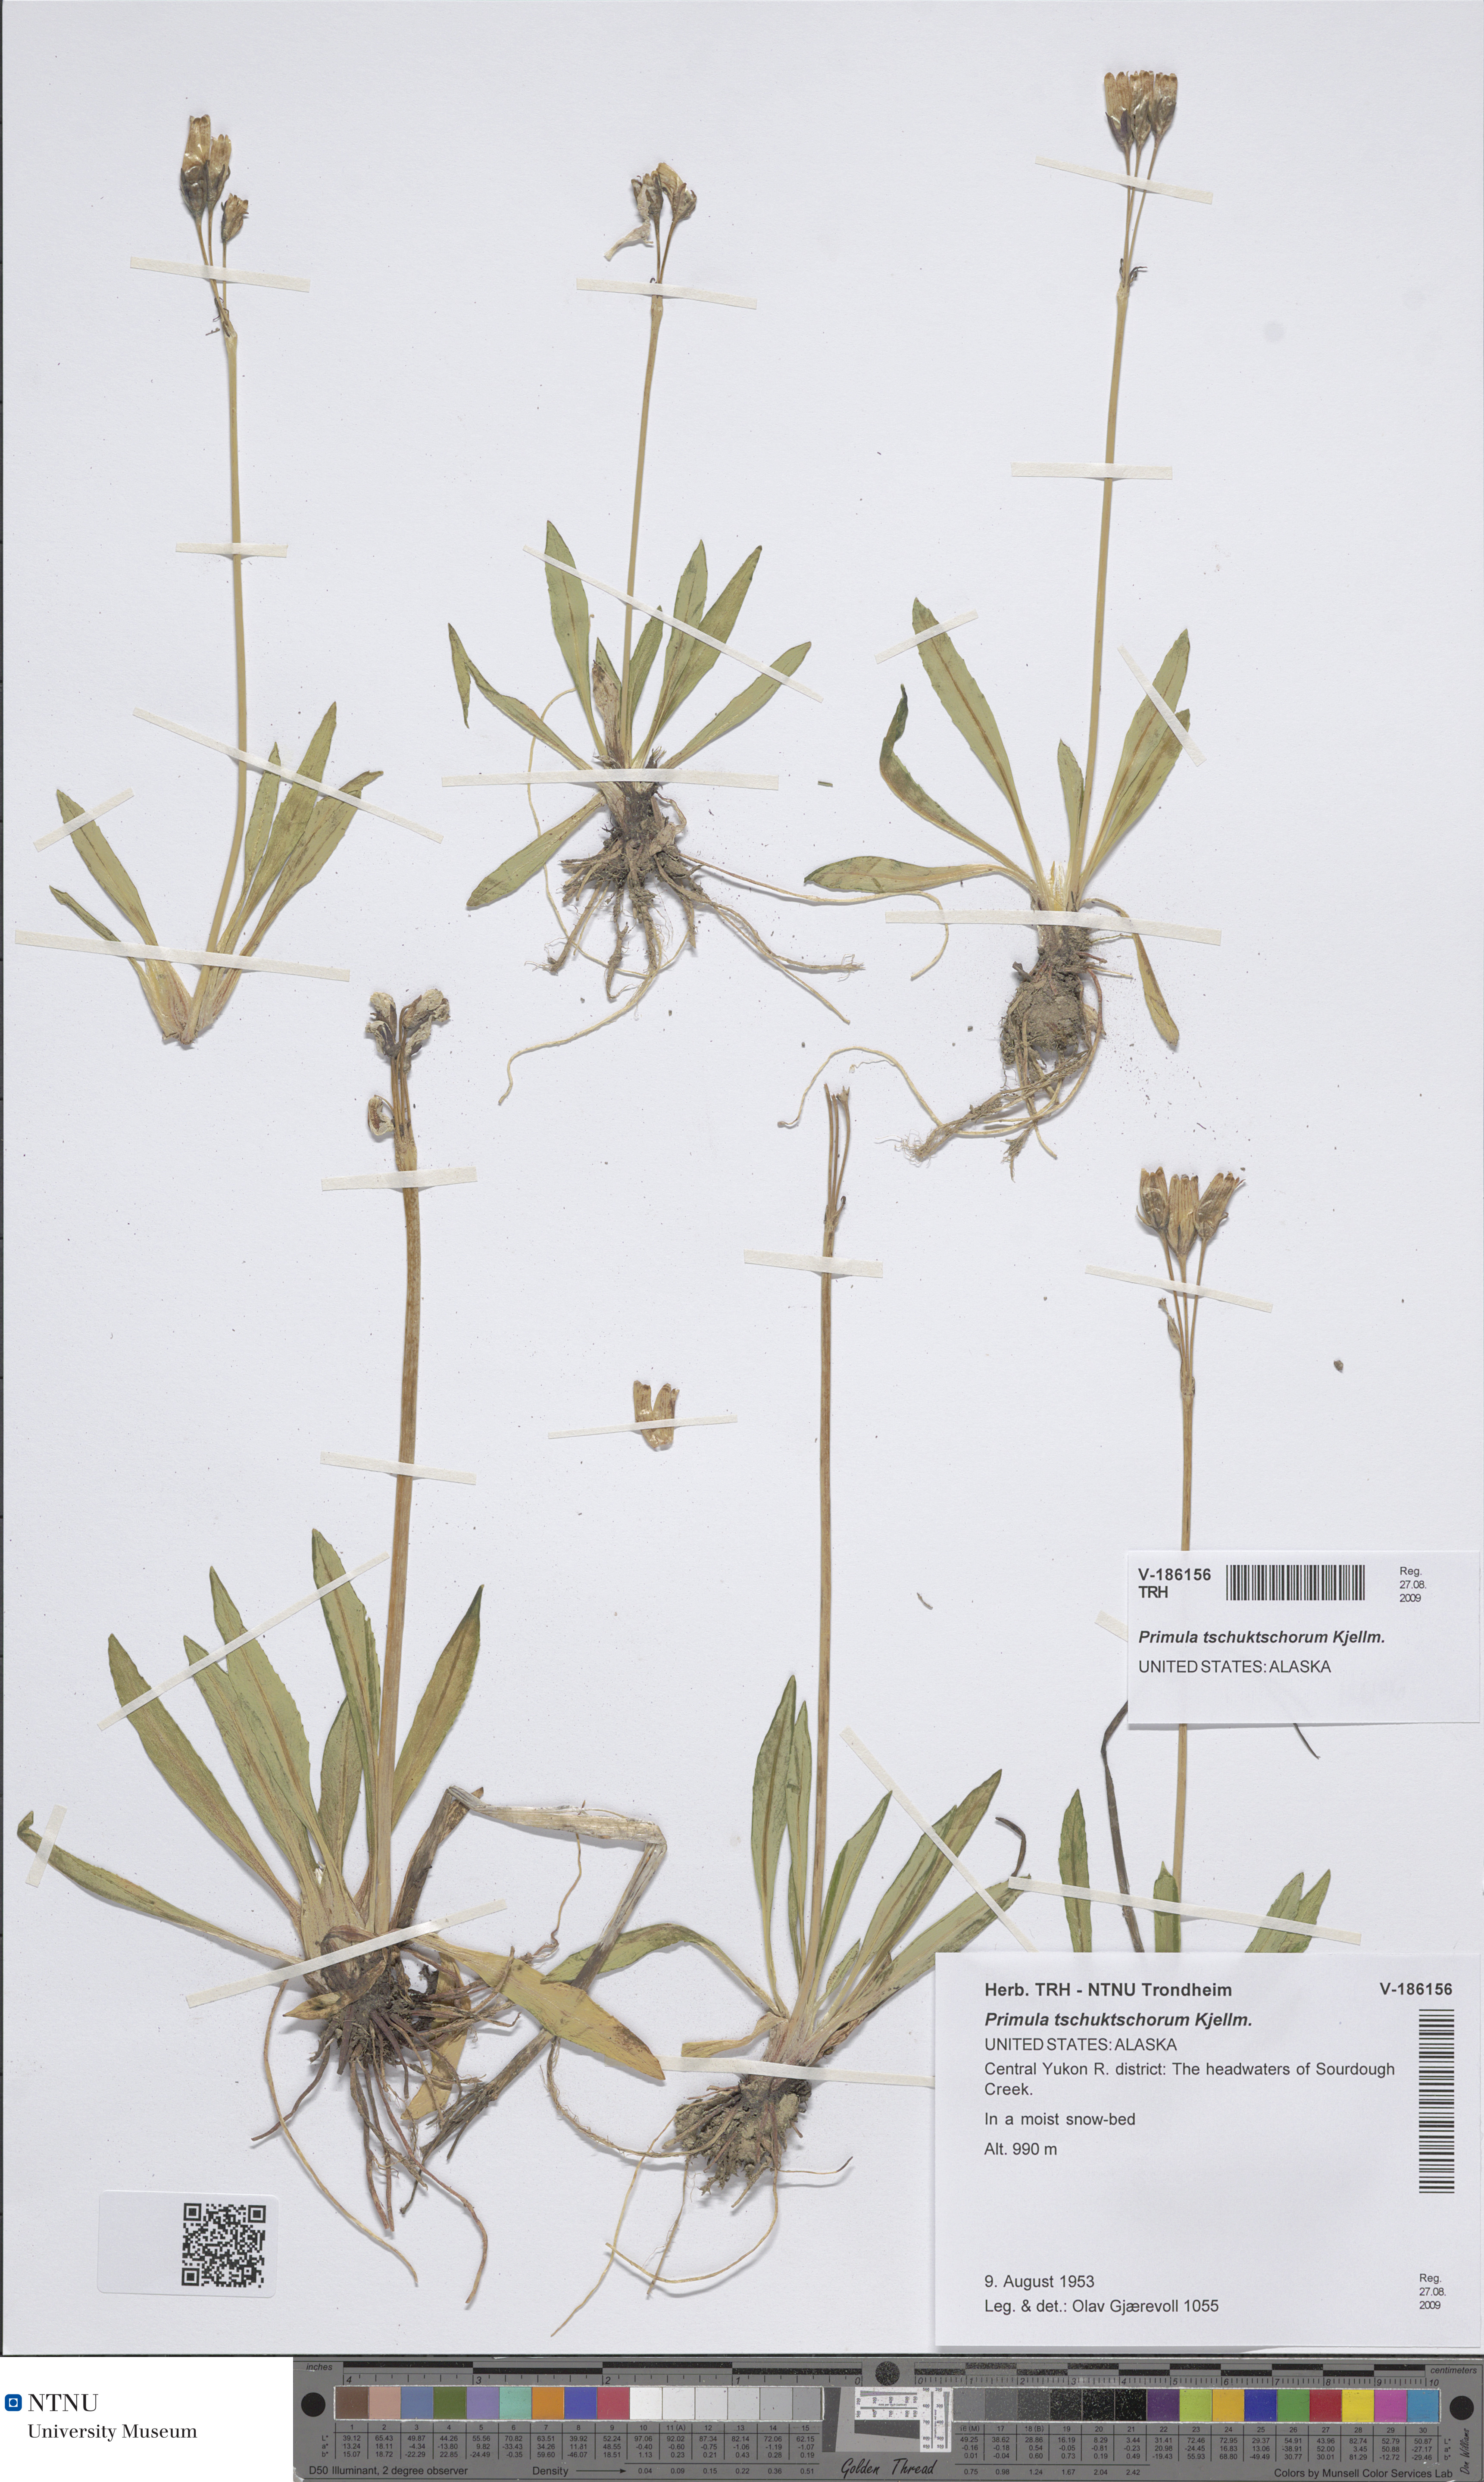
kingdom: Plantae
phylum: Tracheophyta
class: Magnoliopsida
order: Ericales
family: Primulaceae
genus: Primula
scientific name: Primula tschuktschorum
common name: Chukchi primrose
